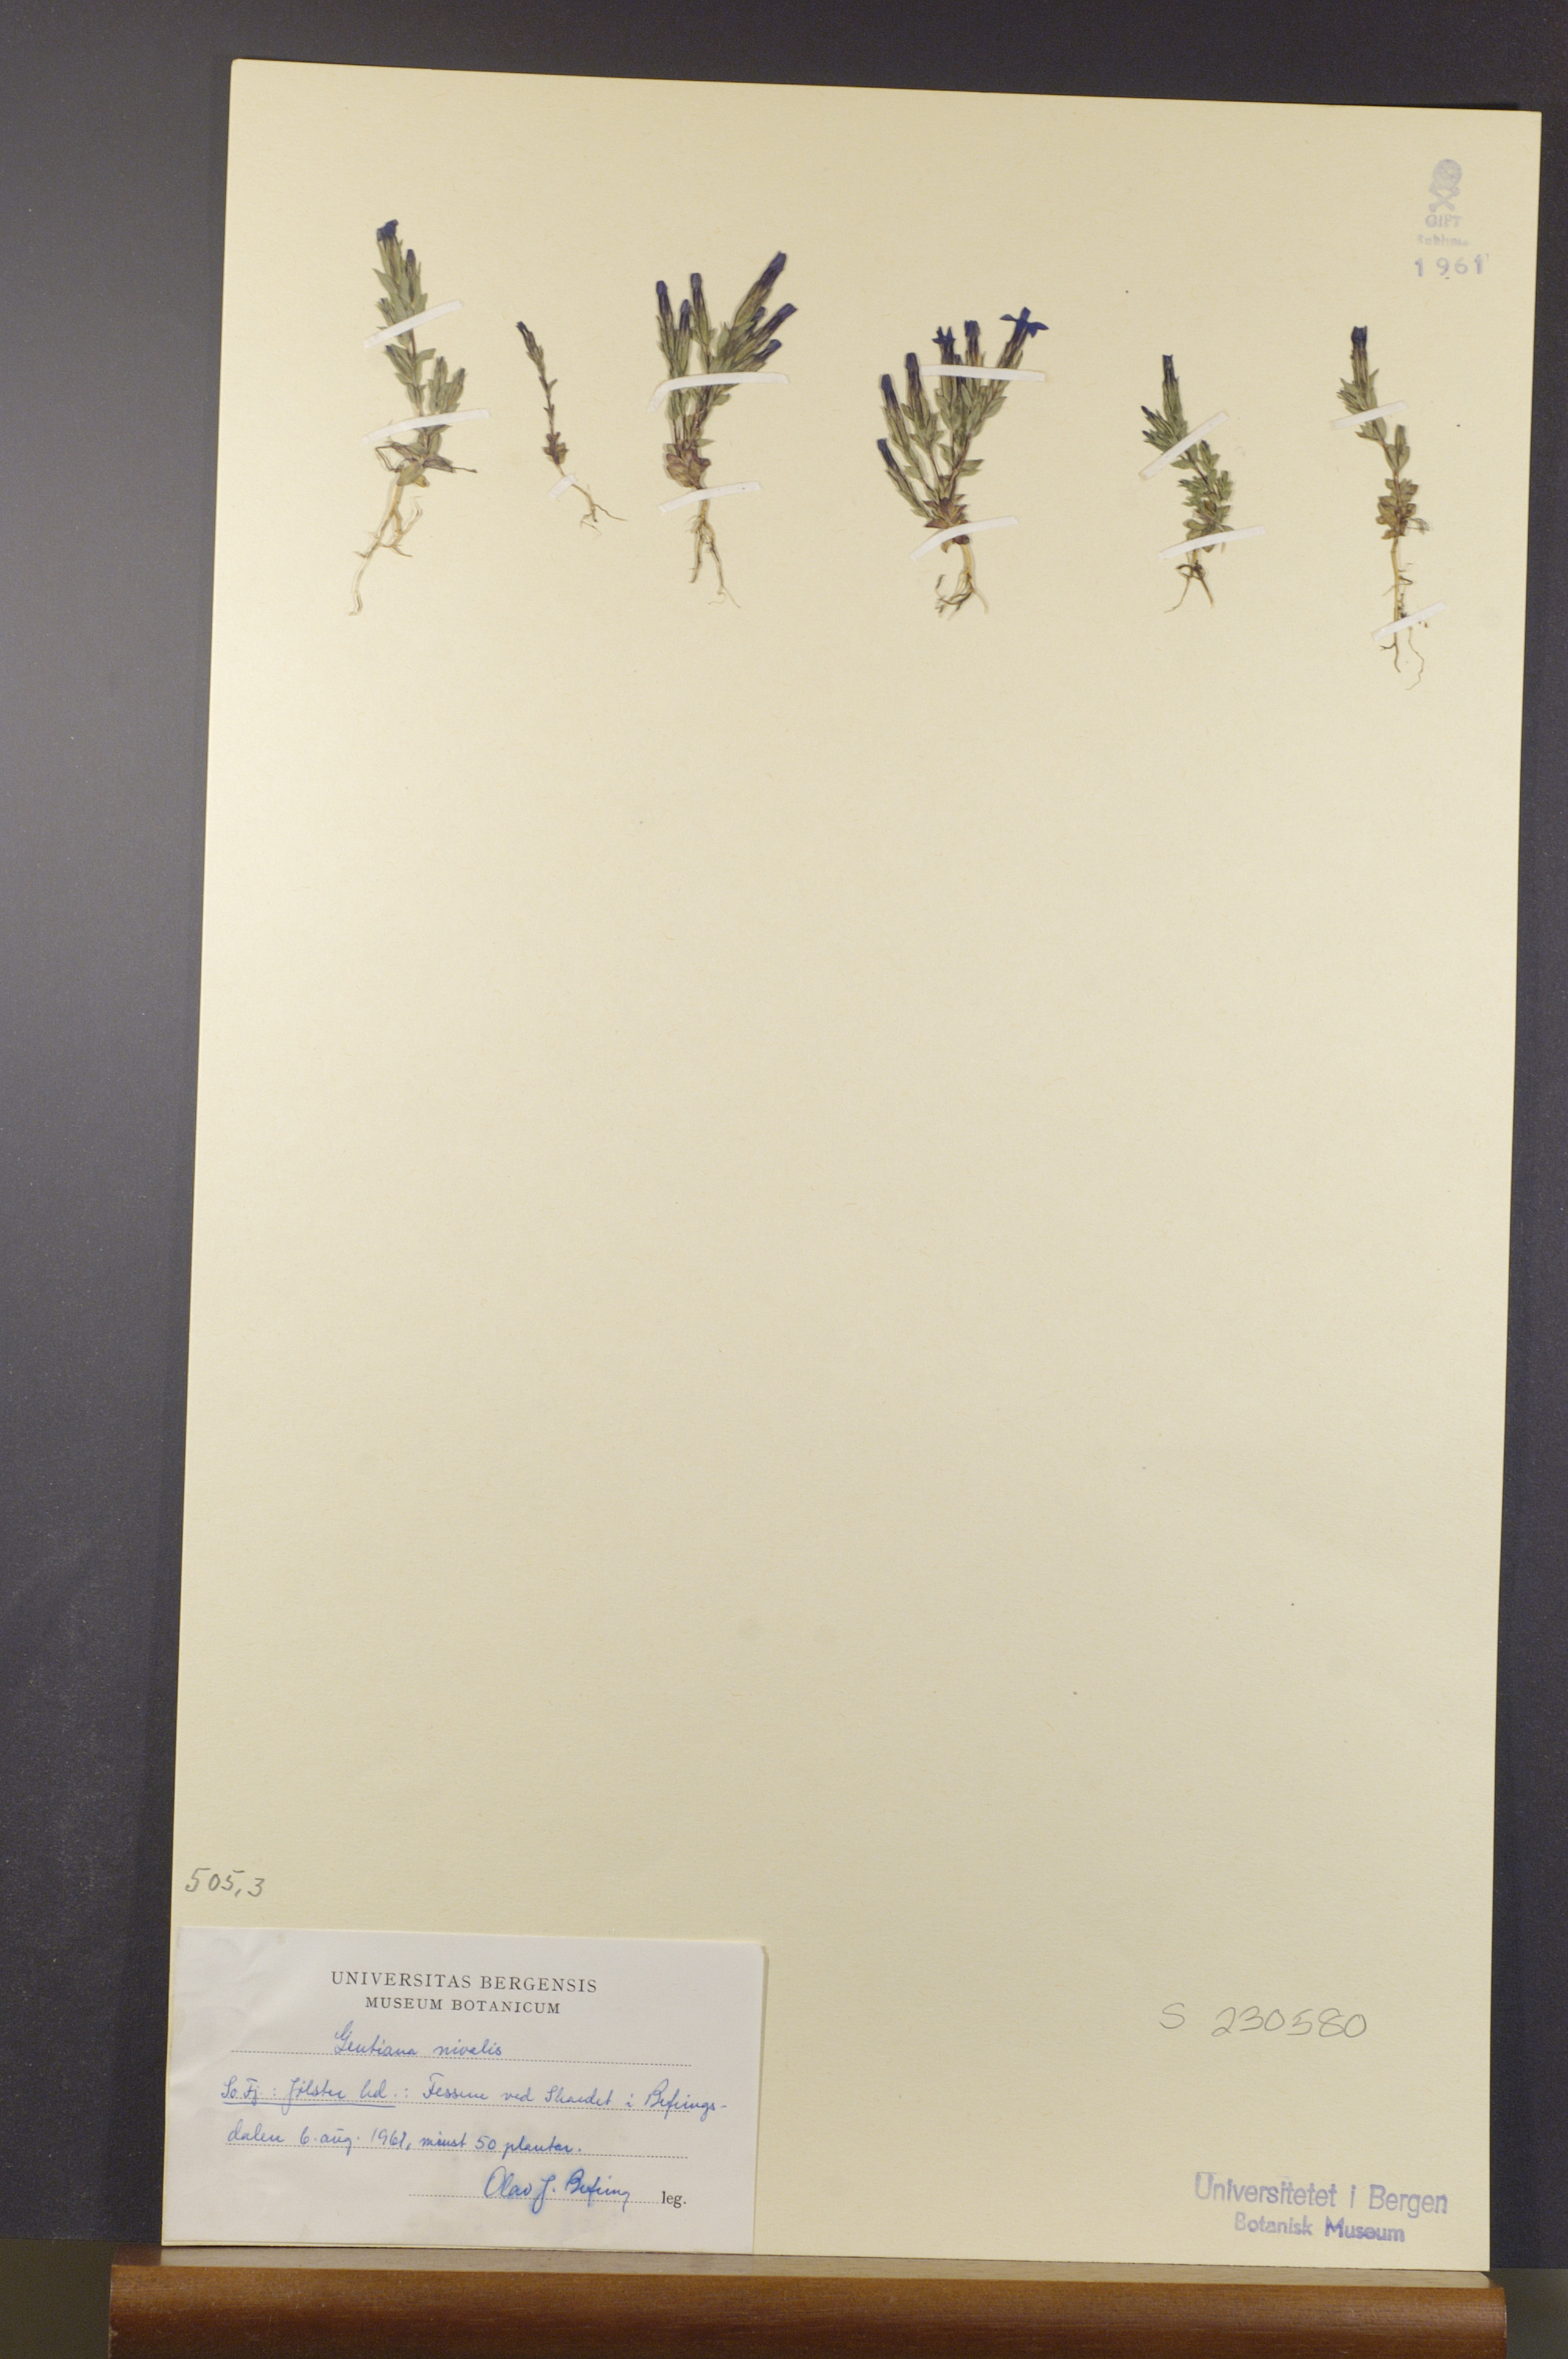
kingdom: Plantae
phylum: Tracheophyta
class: Magnoliopsida
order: Gentianales
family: Gentianaceae
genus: Gentiana
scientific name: Gentiana nivalis
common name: Alpine gentian
